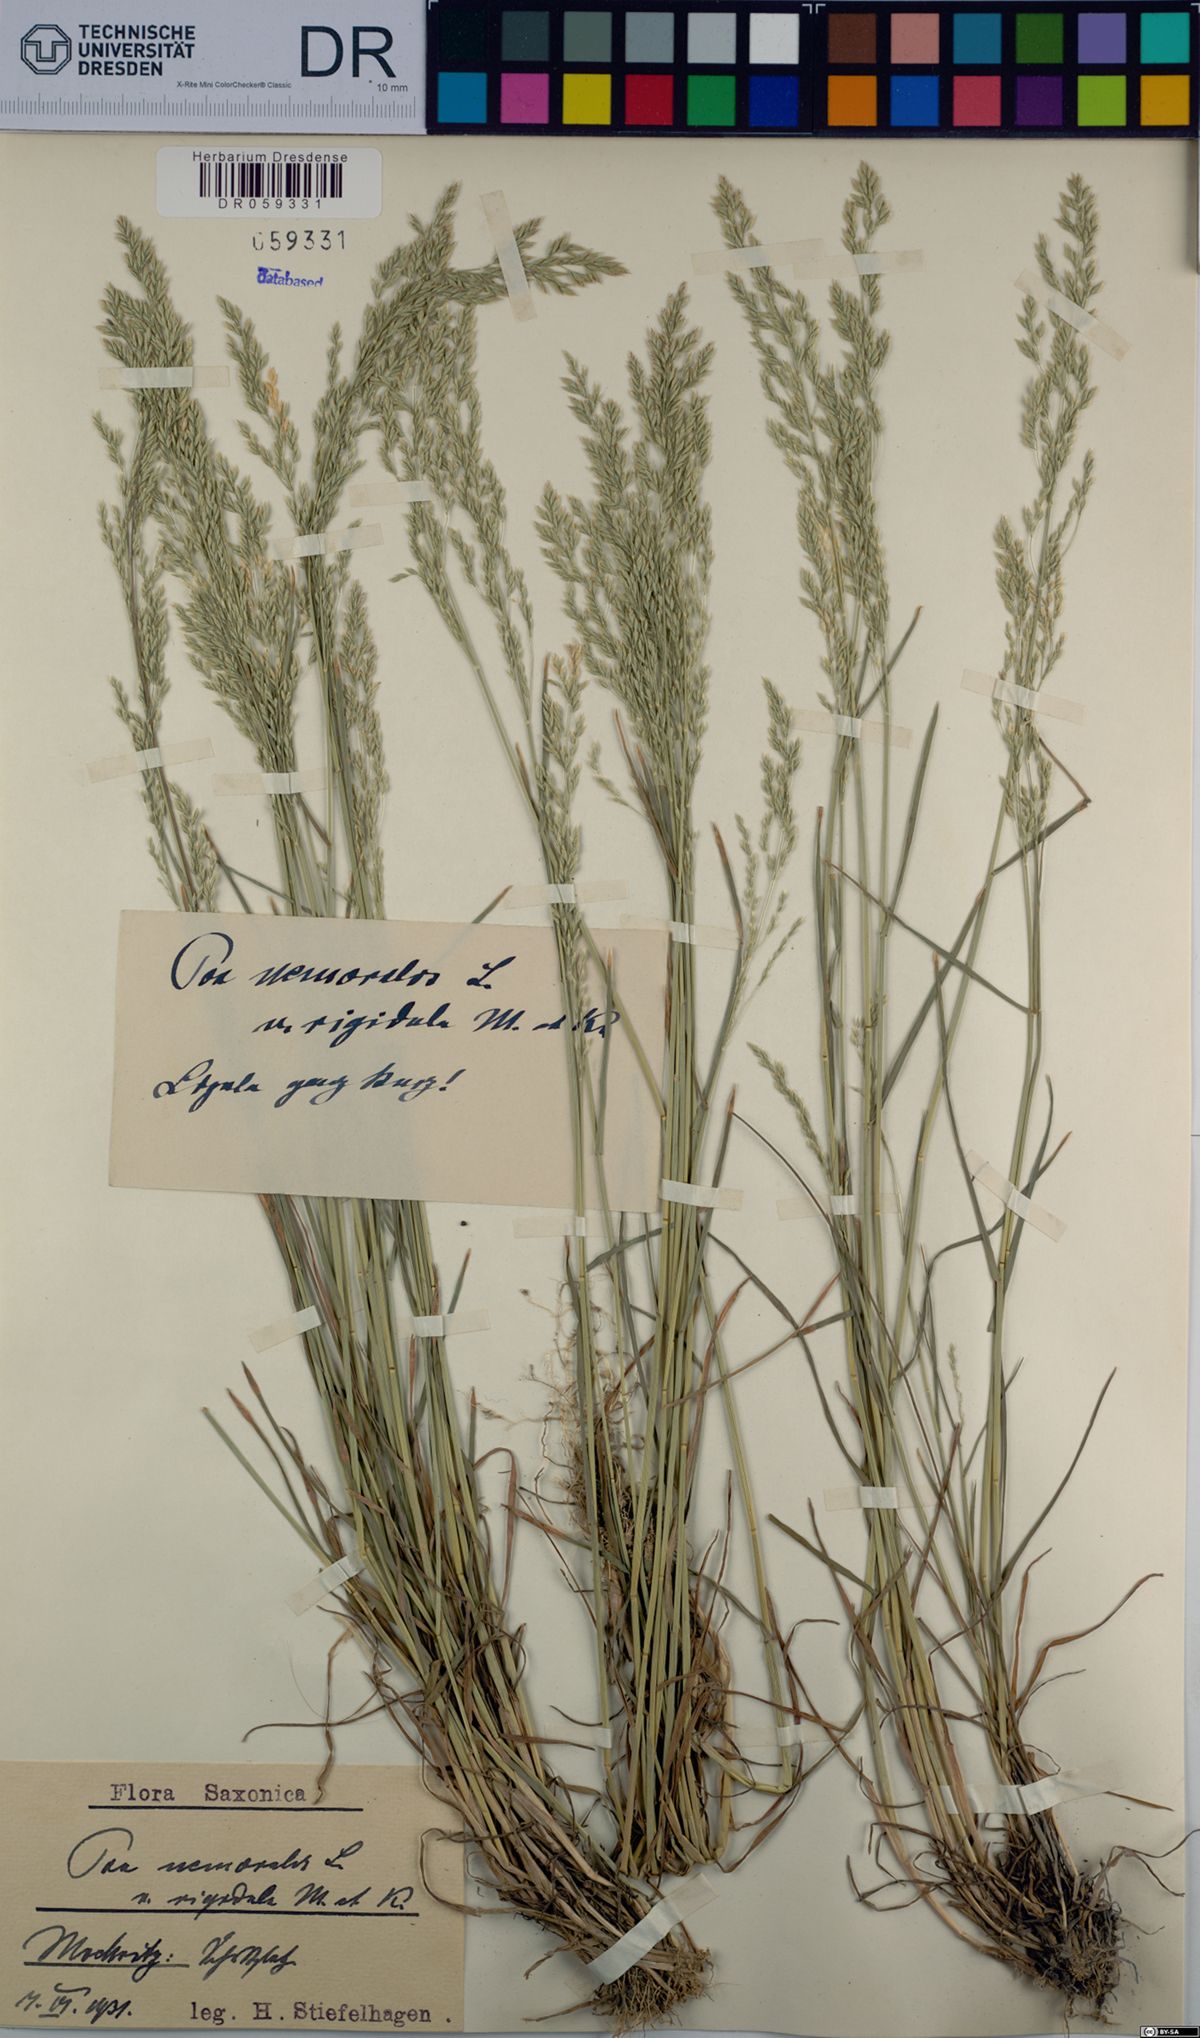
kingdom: Plantae
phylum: Tracheophyta
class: Liliopsida
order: Poales
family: Poaceae
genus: Poa
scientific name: Poa nemoralis
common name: Wood bluegrass
